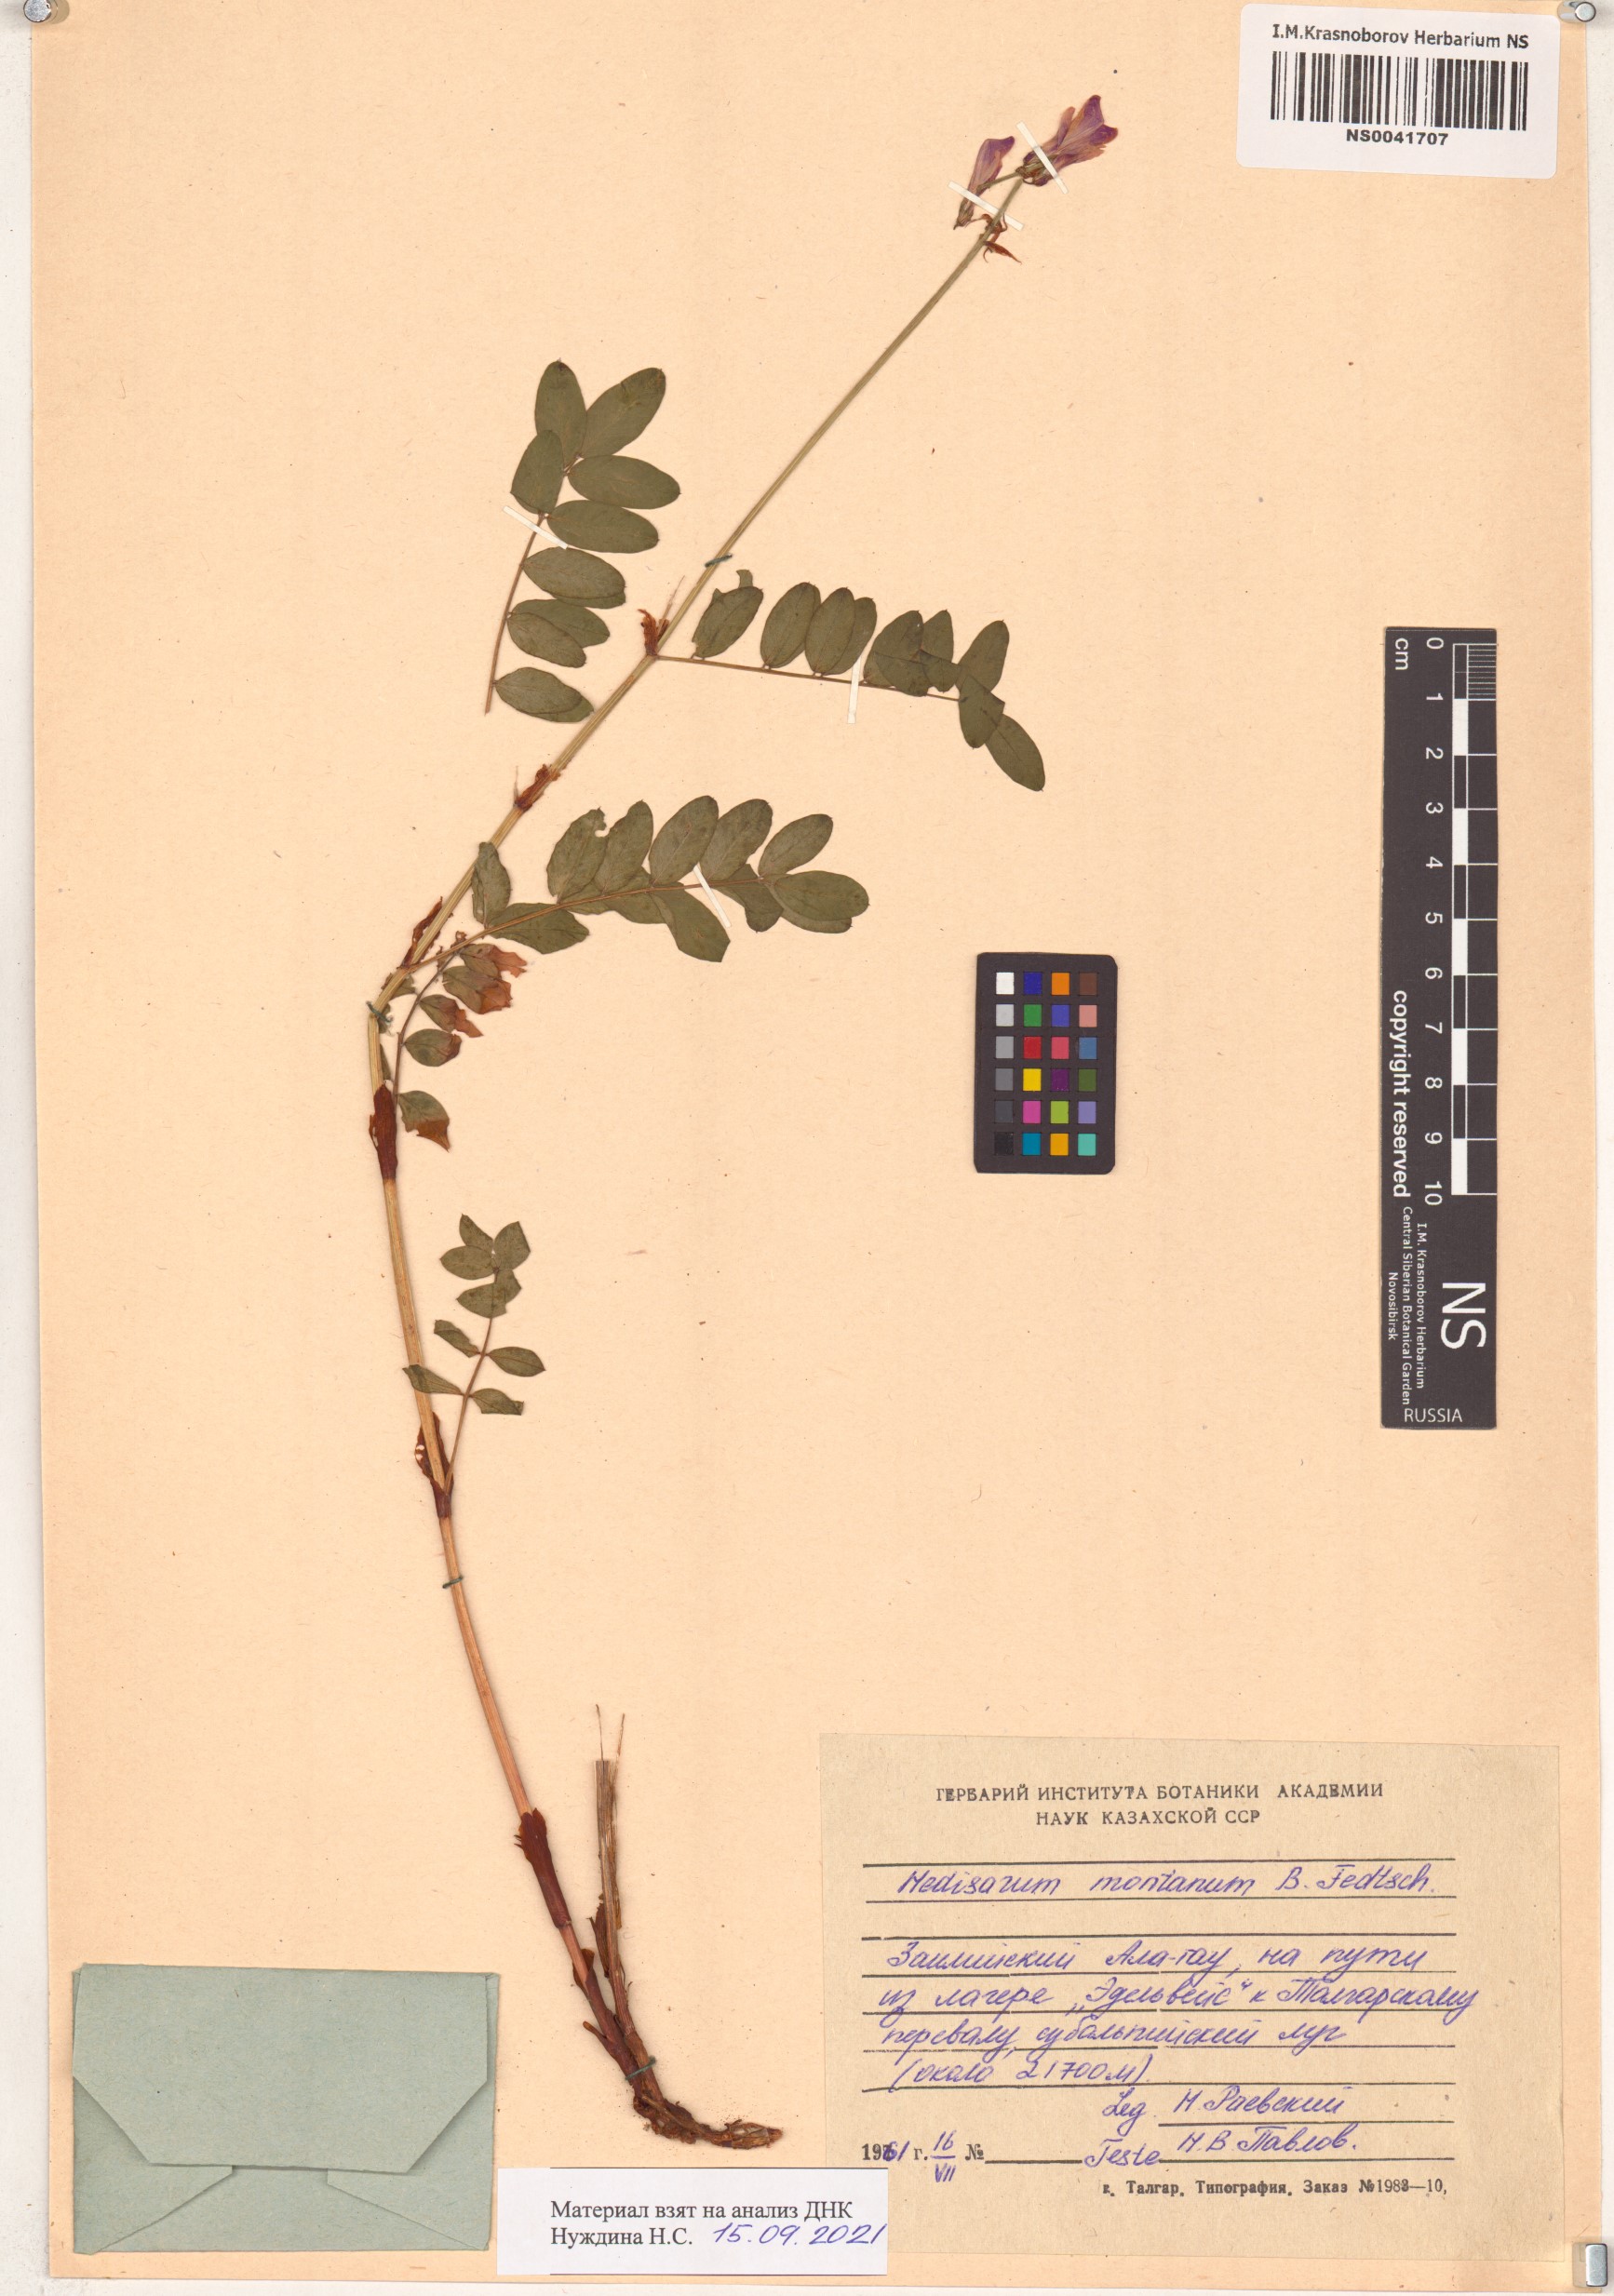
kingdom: Plantae
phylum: Tracheophyta
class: Magnoliopsida
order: Fabales
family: Fabaceae
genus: Hedysarum
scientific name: Hedysarum issykkulense
